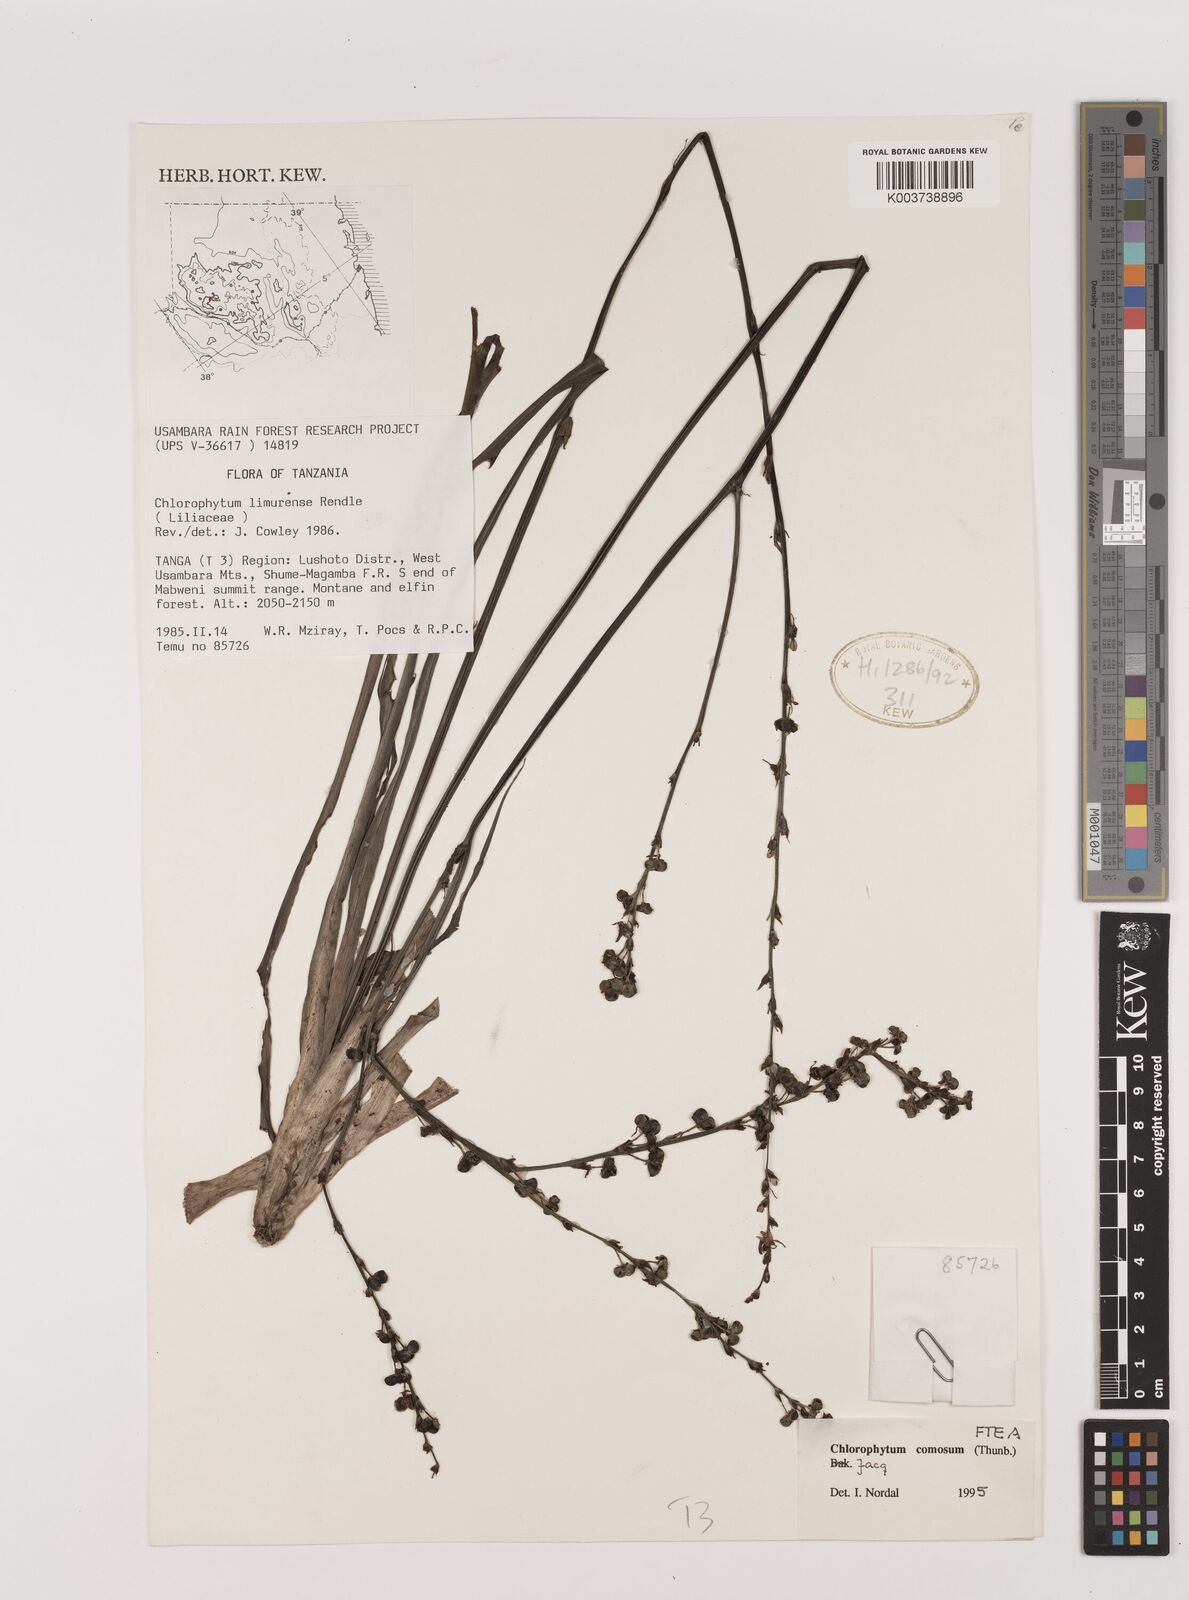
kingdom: Plantae
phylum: Tracheophyta
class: Liliopsida
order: Asparagales
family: Asparagaceae
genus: Chlorophytum
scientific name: Chlorophytum comosum
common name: Spider plant
